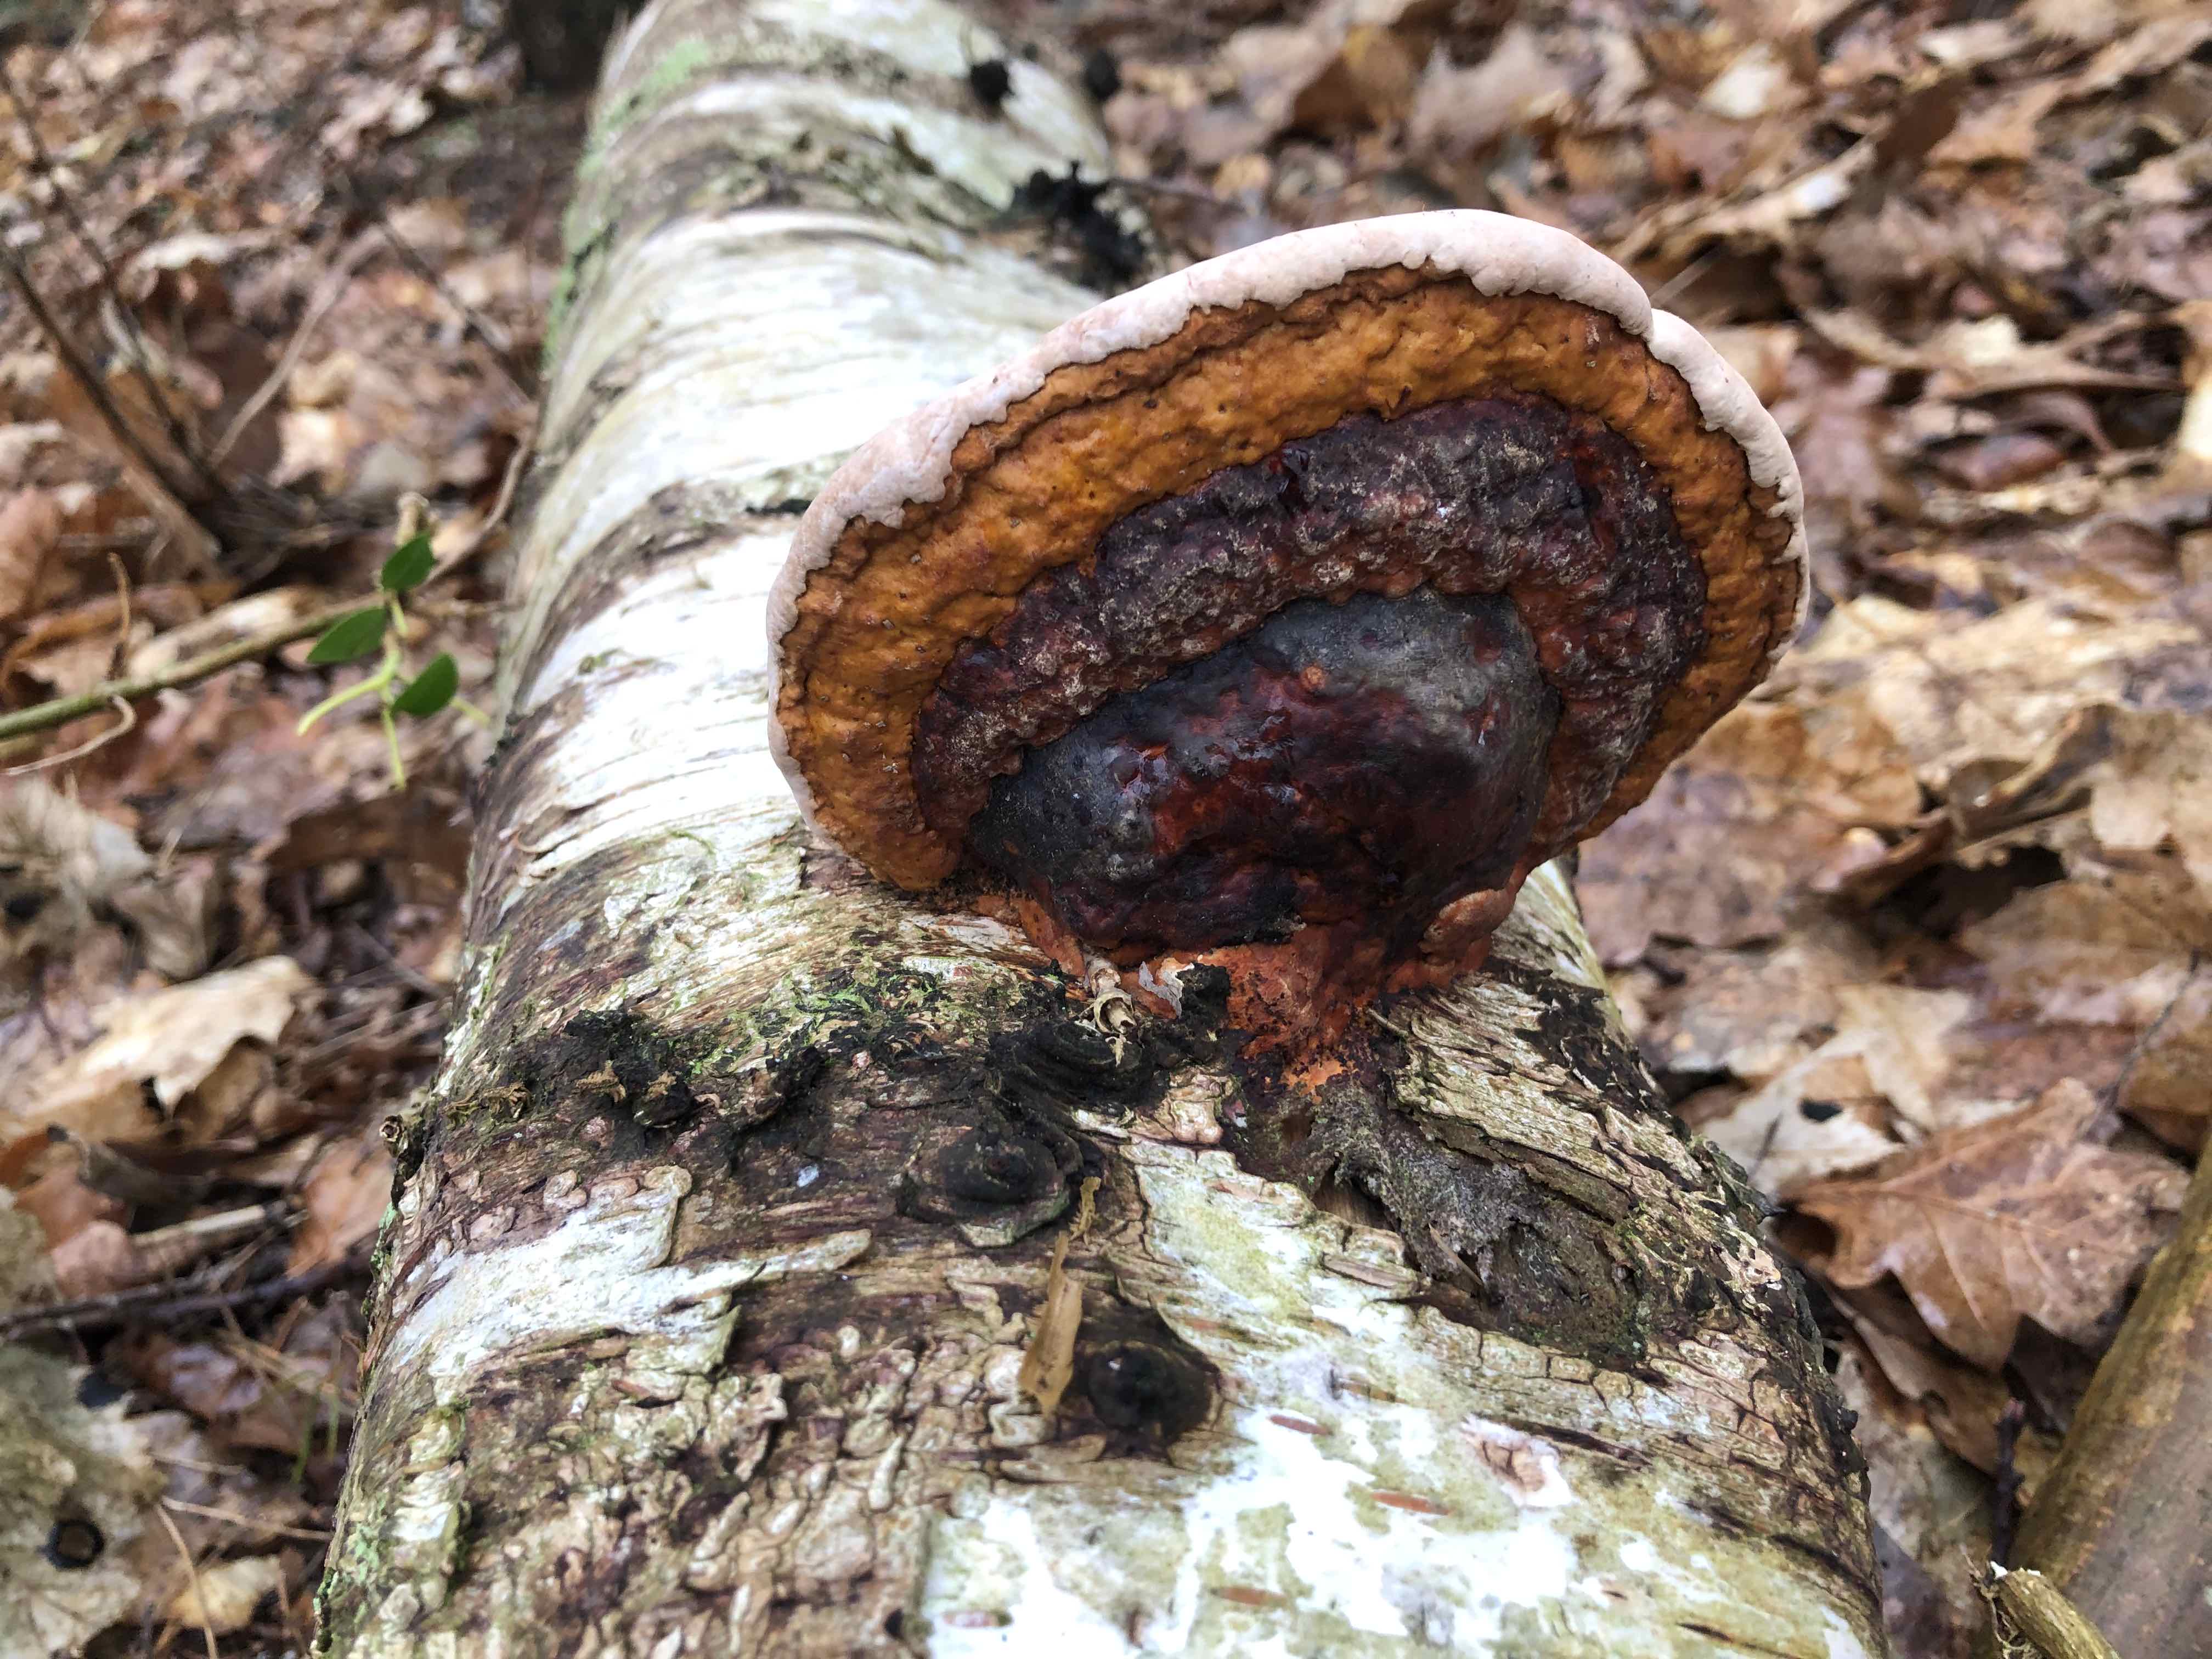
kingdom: Fungi
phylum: Basidiomycota
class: Agaricomycetes
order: Polyporales
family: Fomitopsidaceae
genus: Fomitopsis
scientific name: Fomitopsis pinicola
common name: randbæltet hovporesvamp
